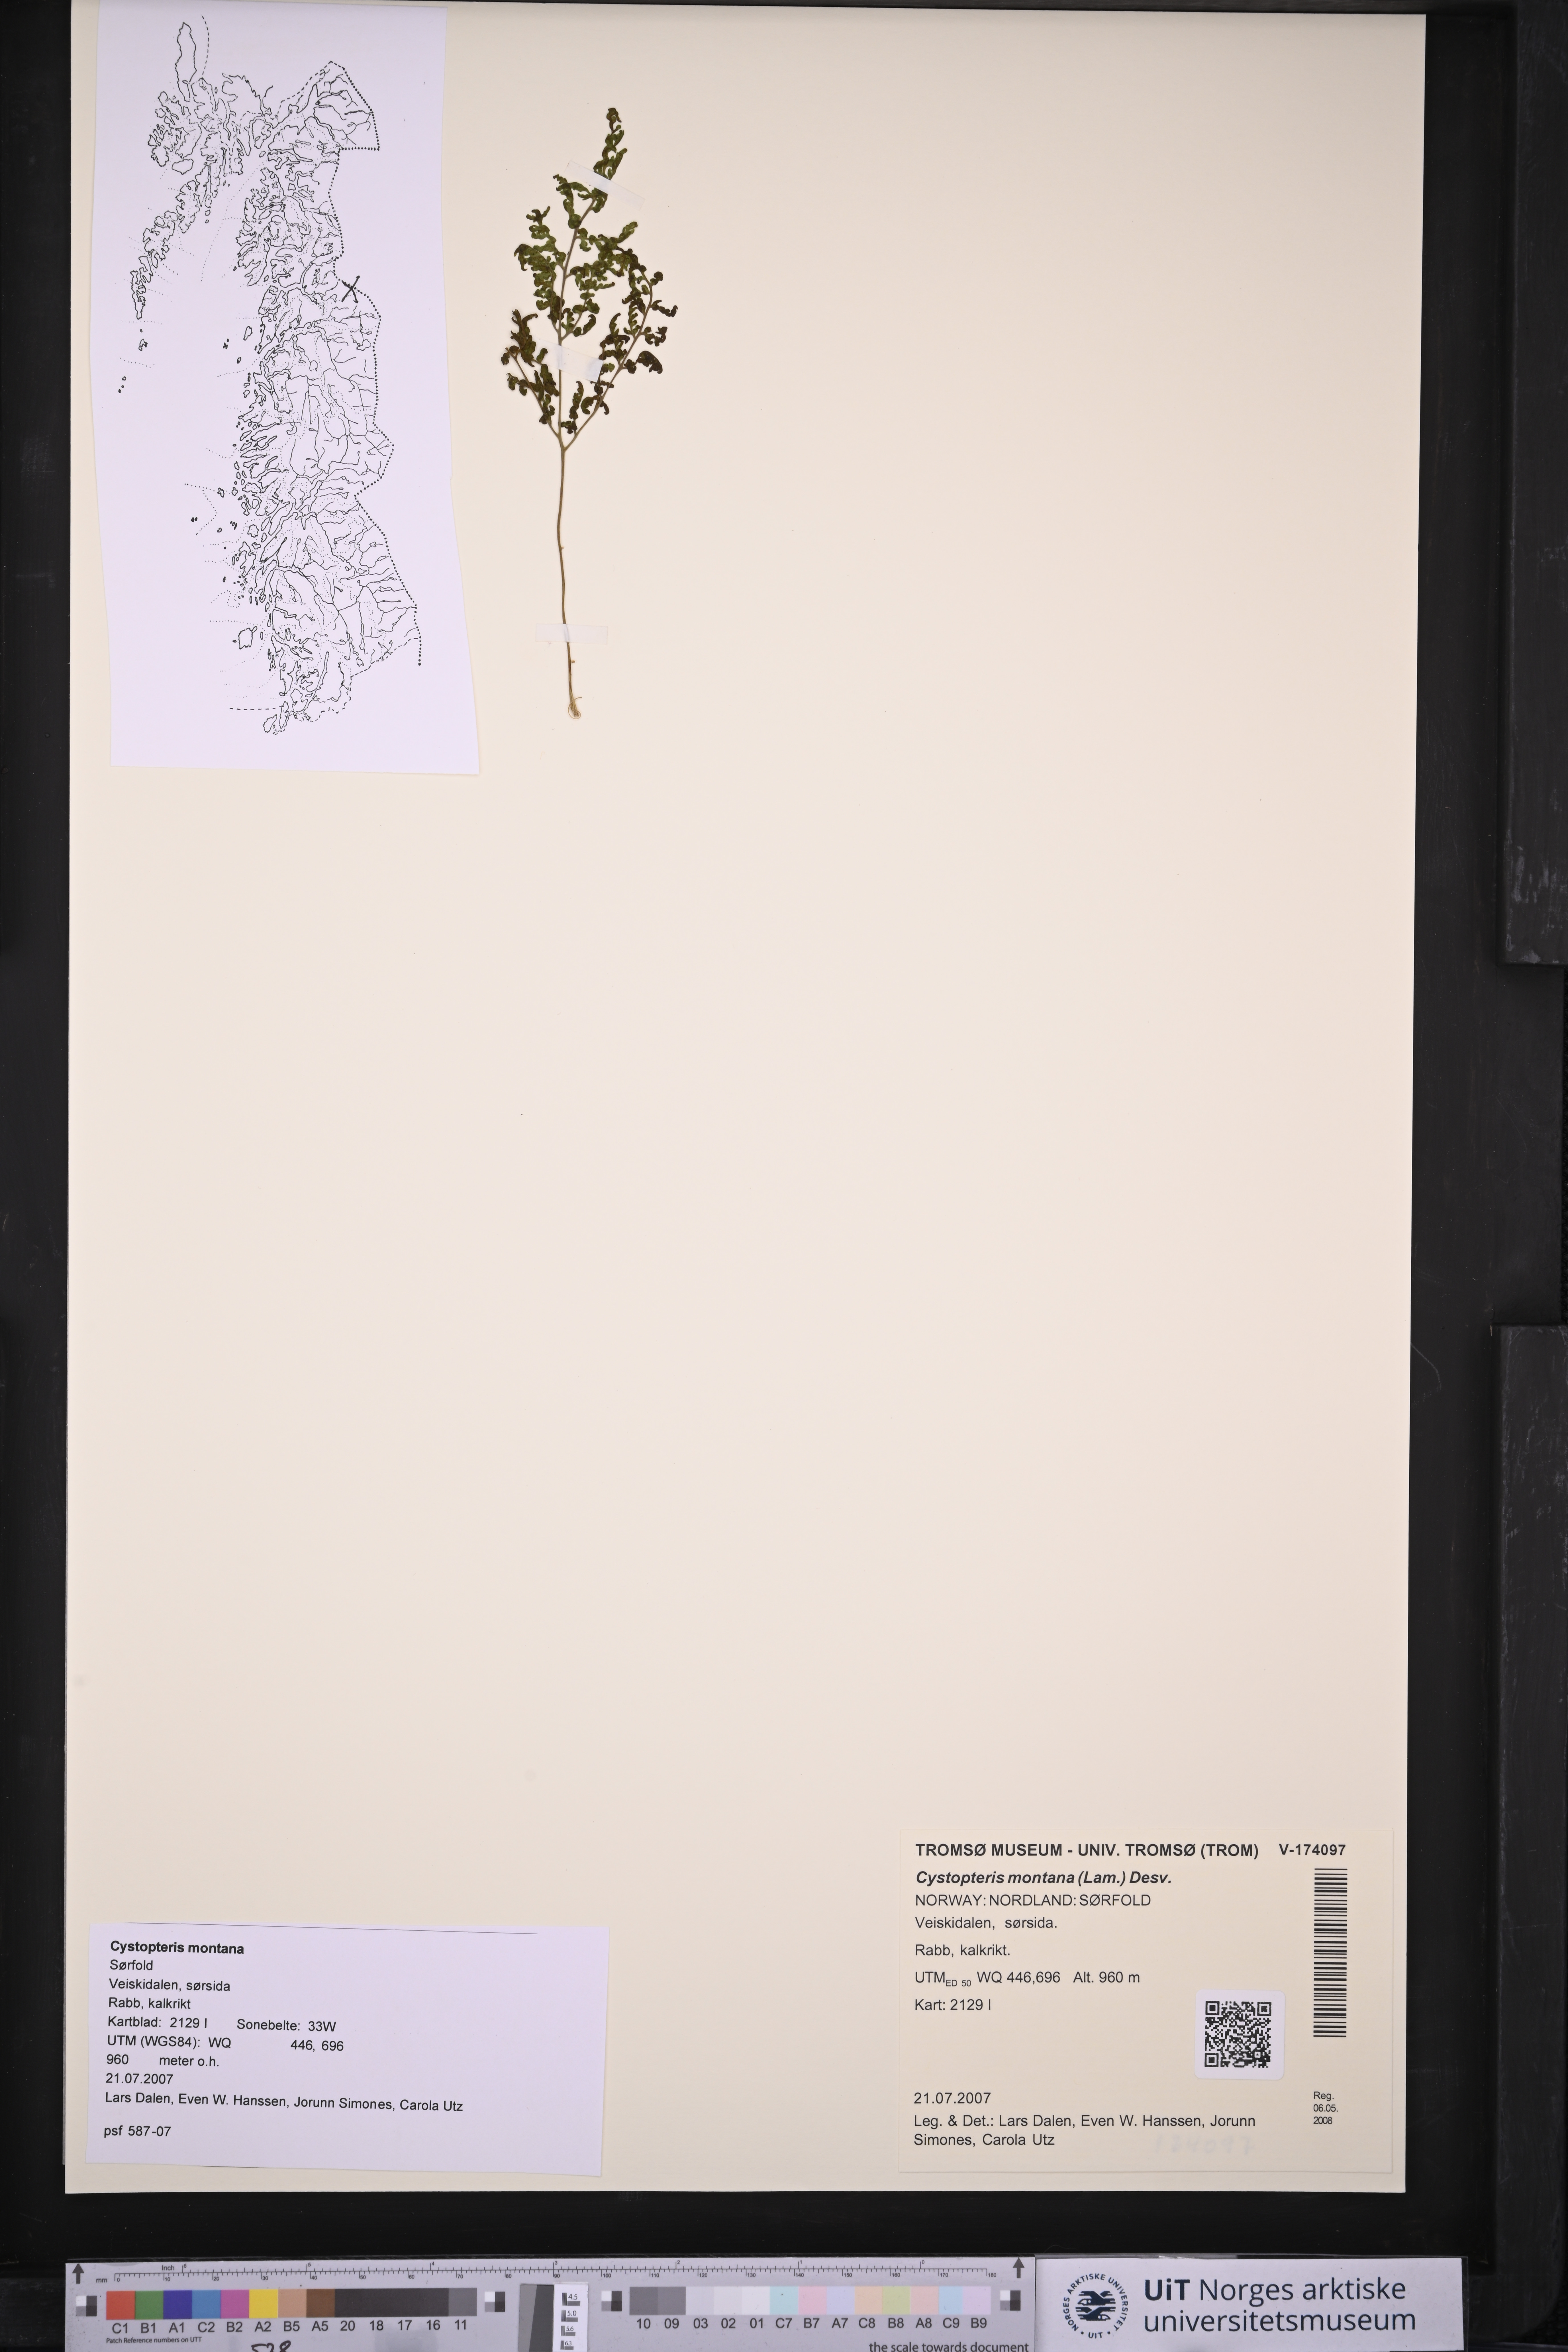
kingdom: Plantae
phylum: Tracheophyta
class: Polypodiopsida
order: Polypodiales
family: Cystopteridaceae
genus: Cystopteris
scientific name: Cystopteris montana
